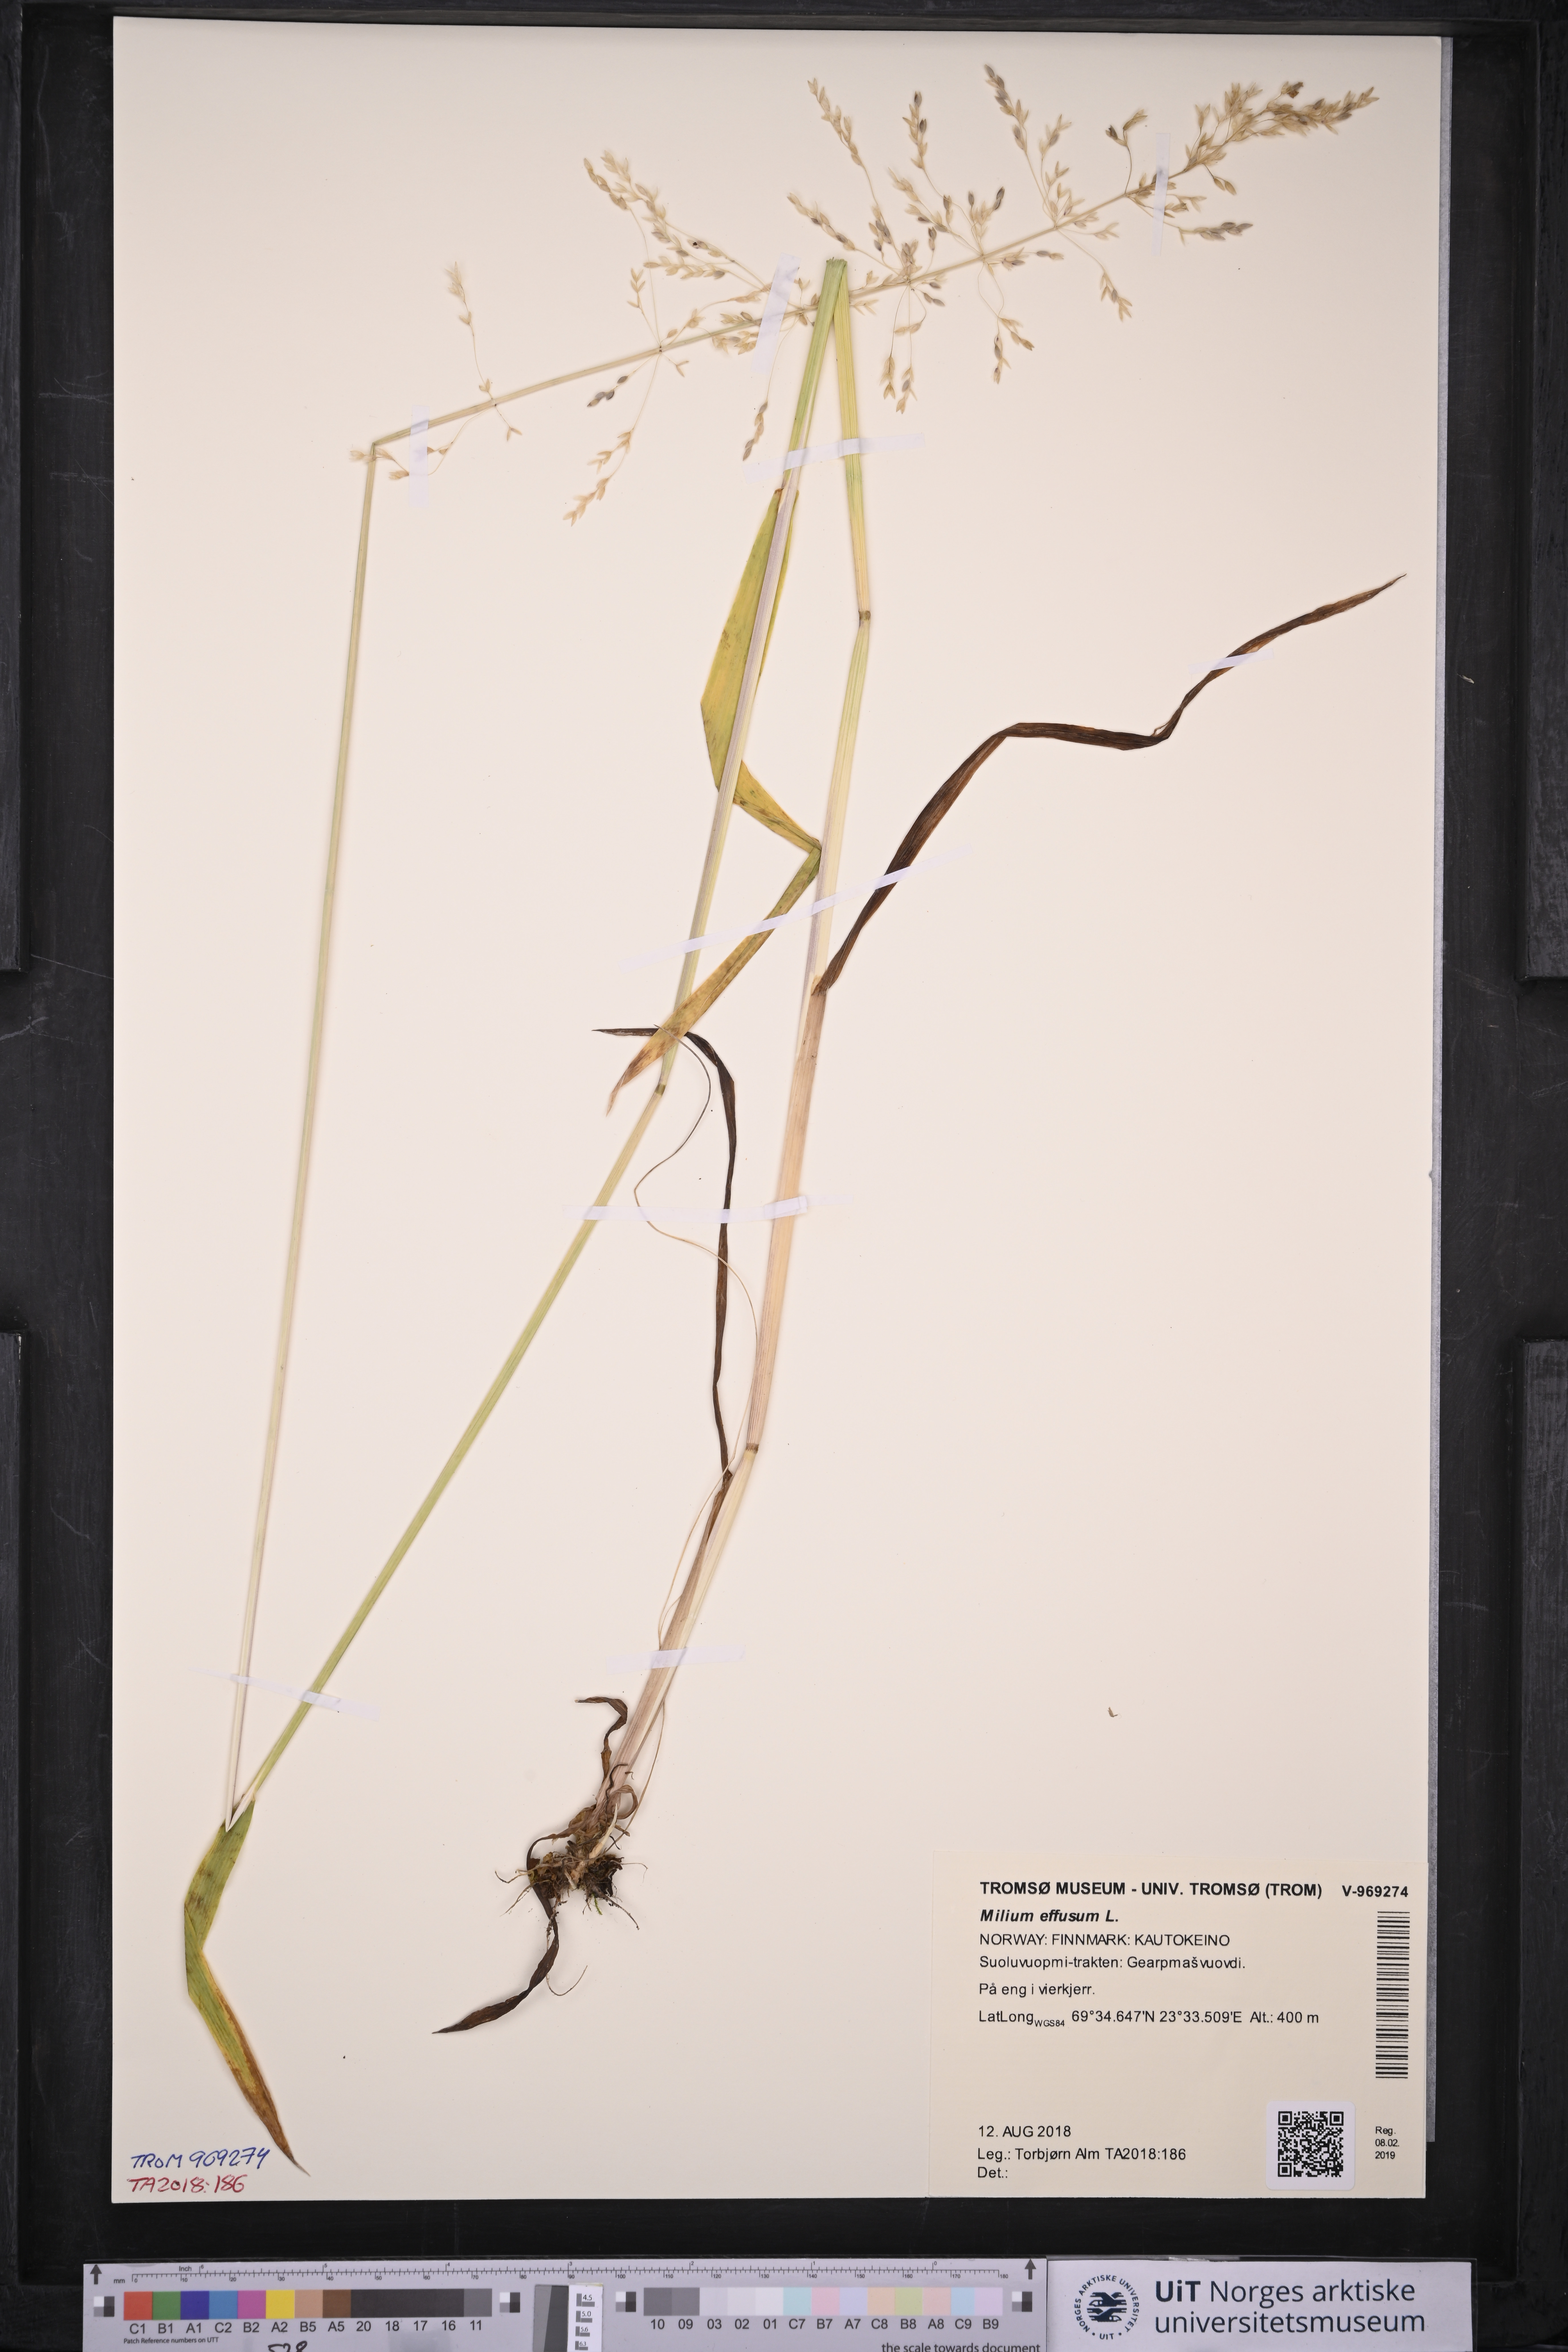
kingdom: Plantae
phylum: Tracheophyta
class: Liliopsida
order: Poales
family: Poaceae
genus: Milium
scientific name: Milium effusum
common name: Wood millet
